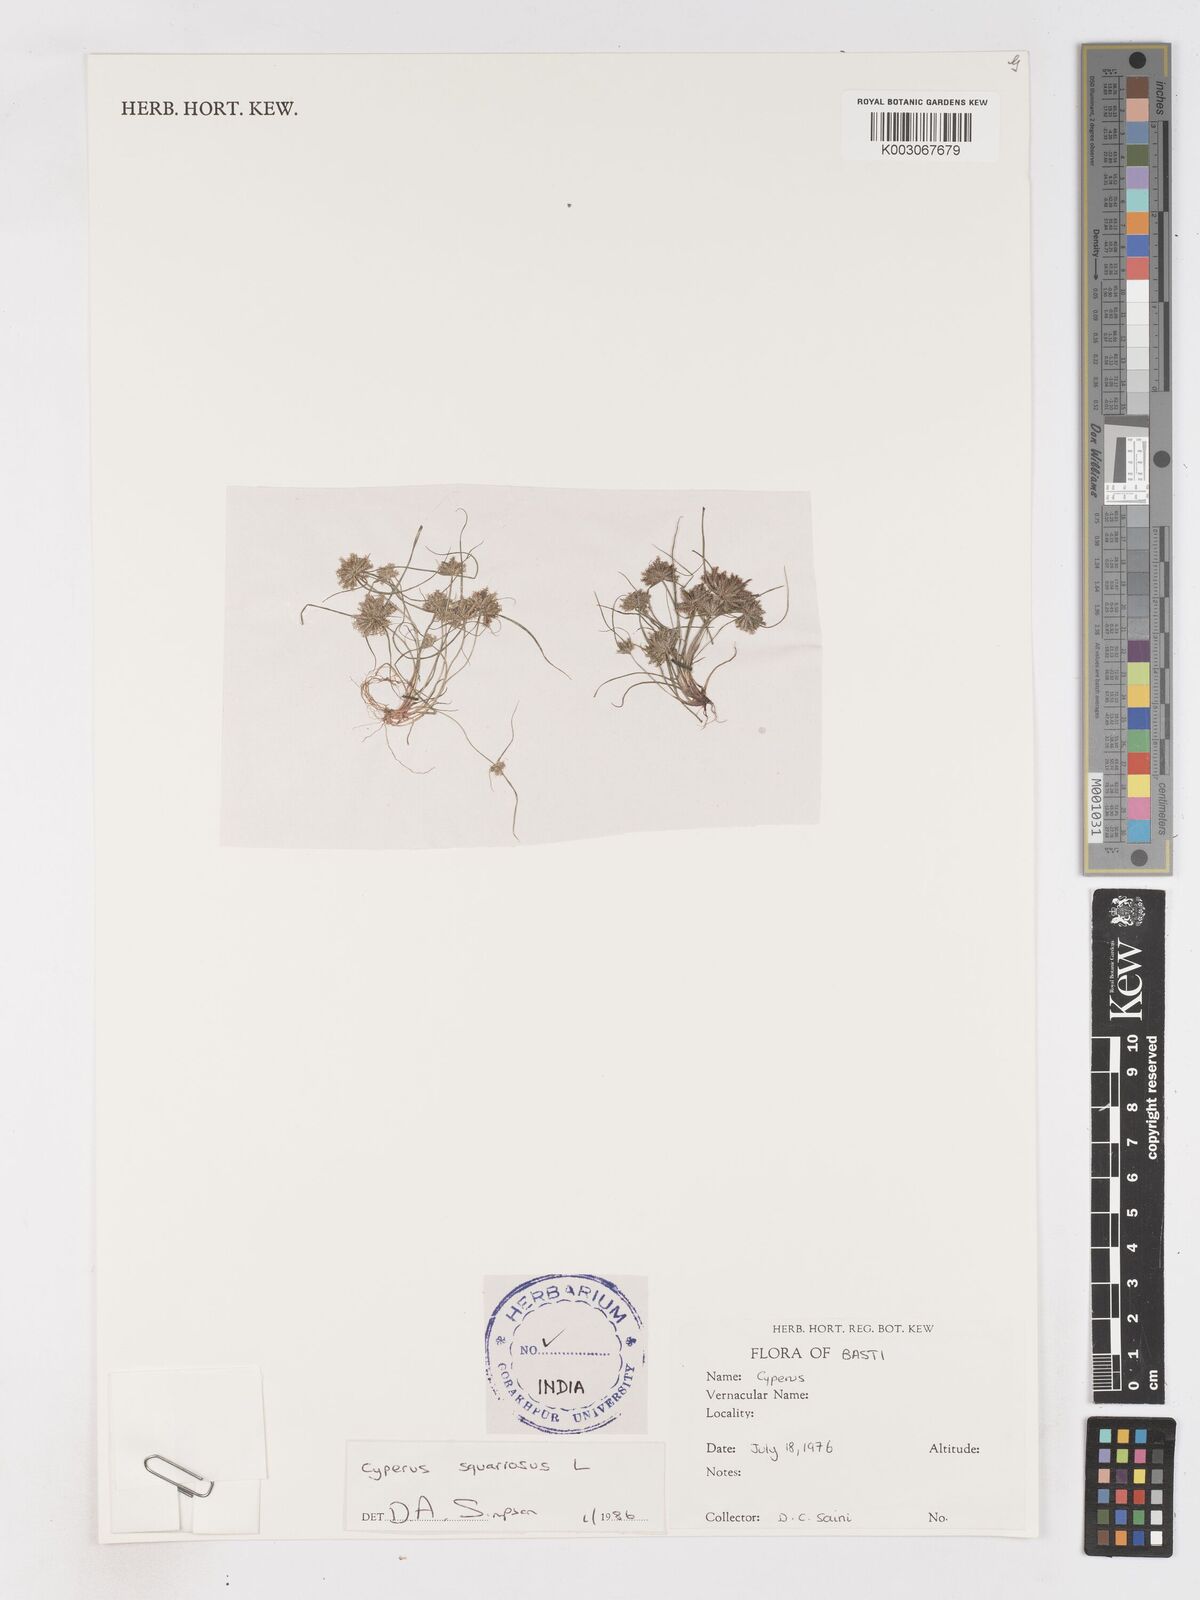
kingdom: Plantae
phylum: Tracheophyta
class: Liliopsida
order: Poales
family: Cyperaceae
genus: Cyperus
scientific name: Cyperus squarrosus
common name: Awned cyperus
